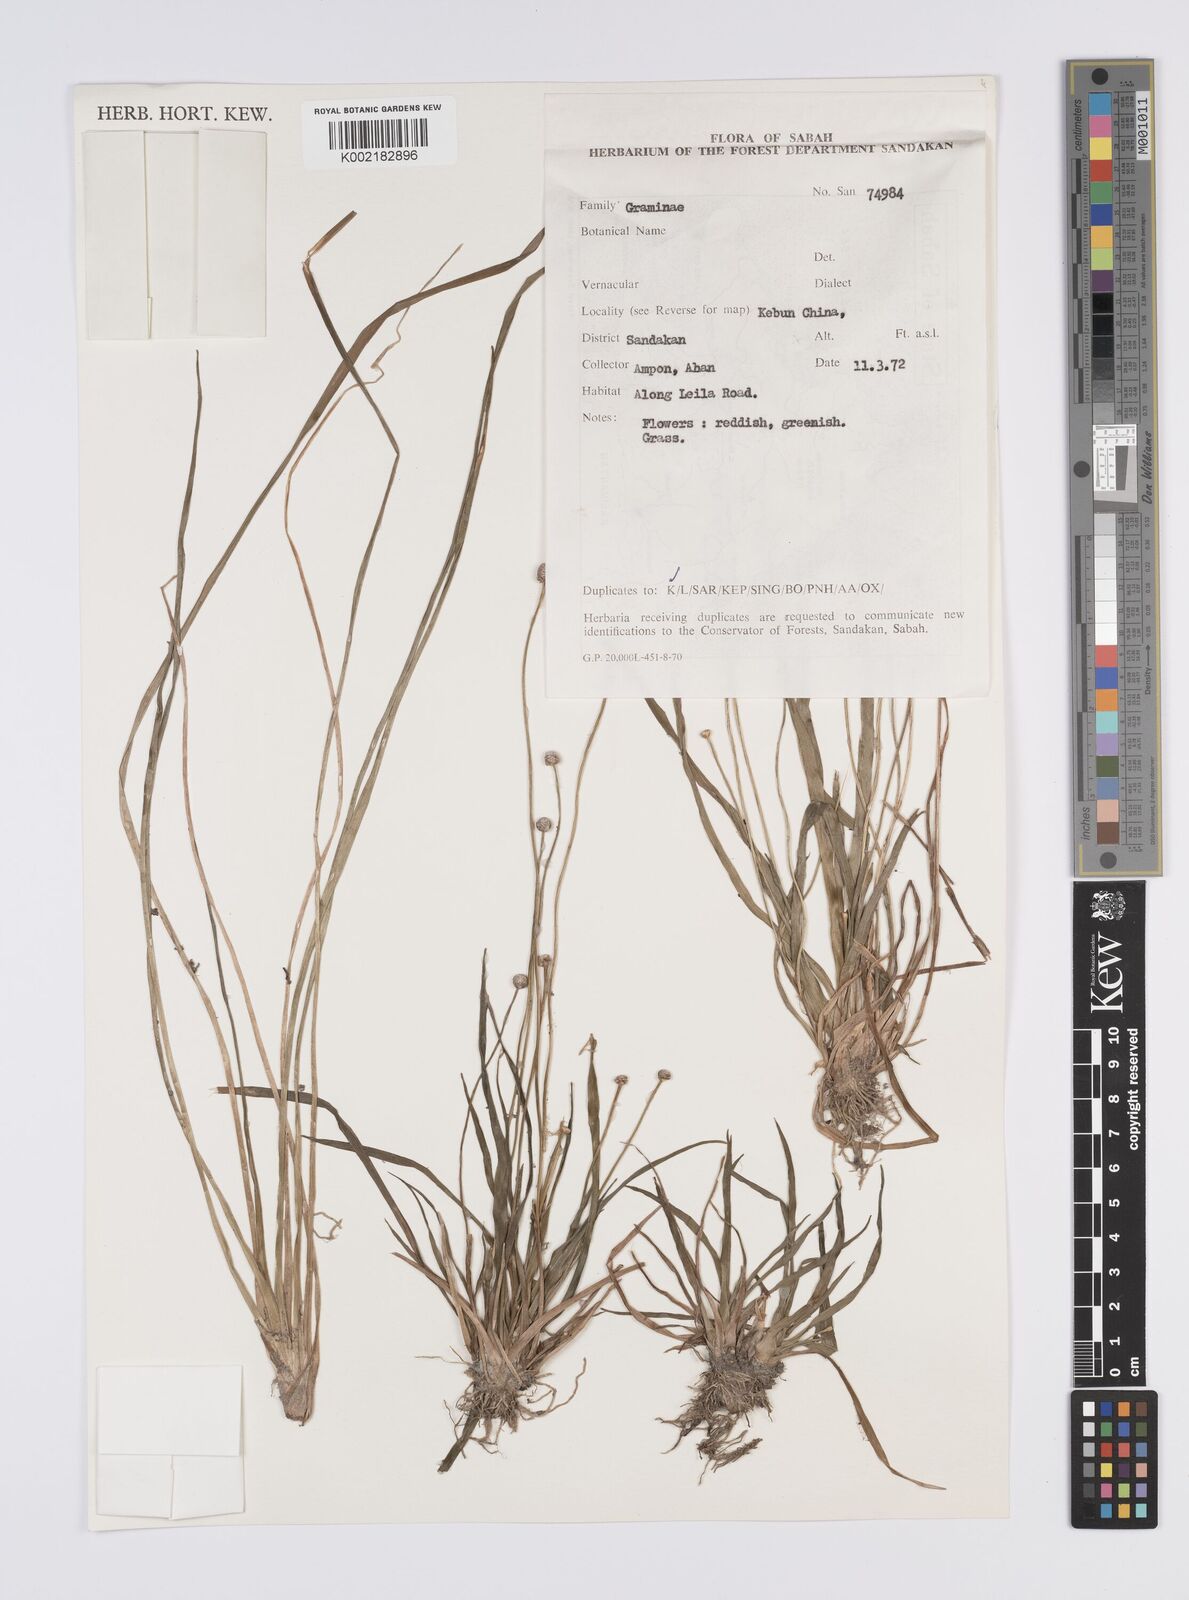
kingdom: Plantae
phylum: Tracheophyta
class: Liliopsida
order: Poales
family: Eriocaulaceae
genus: Eriocaulon
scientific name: Eriocaulon
